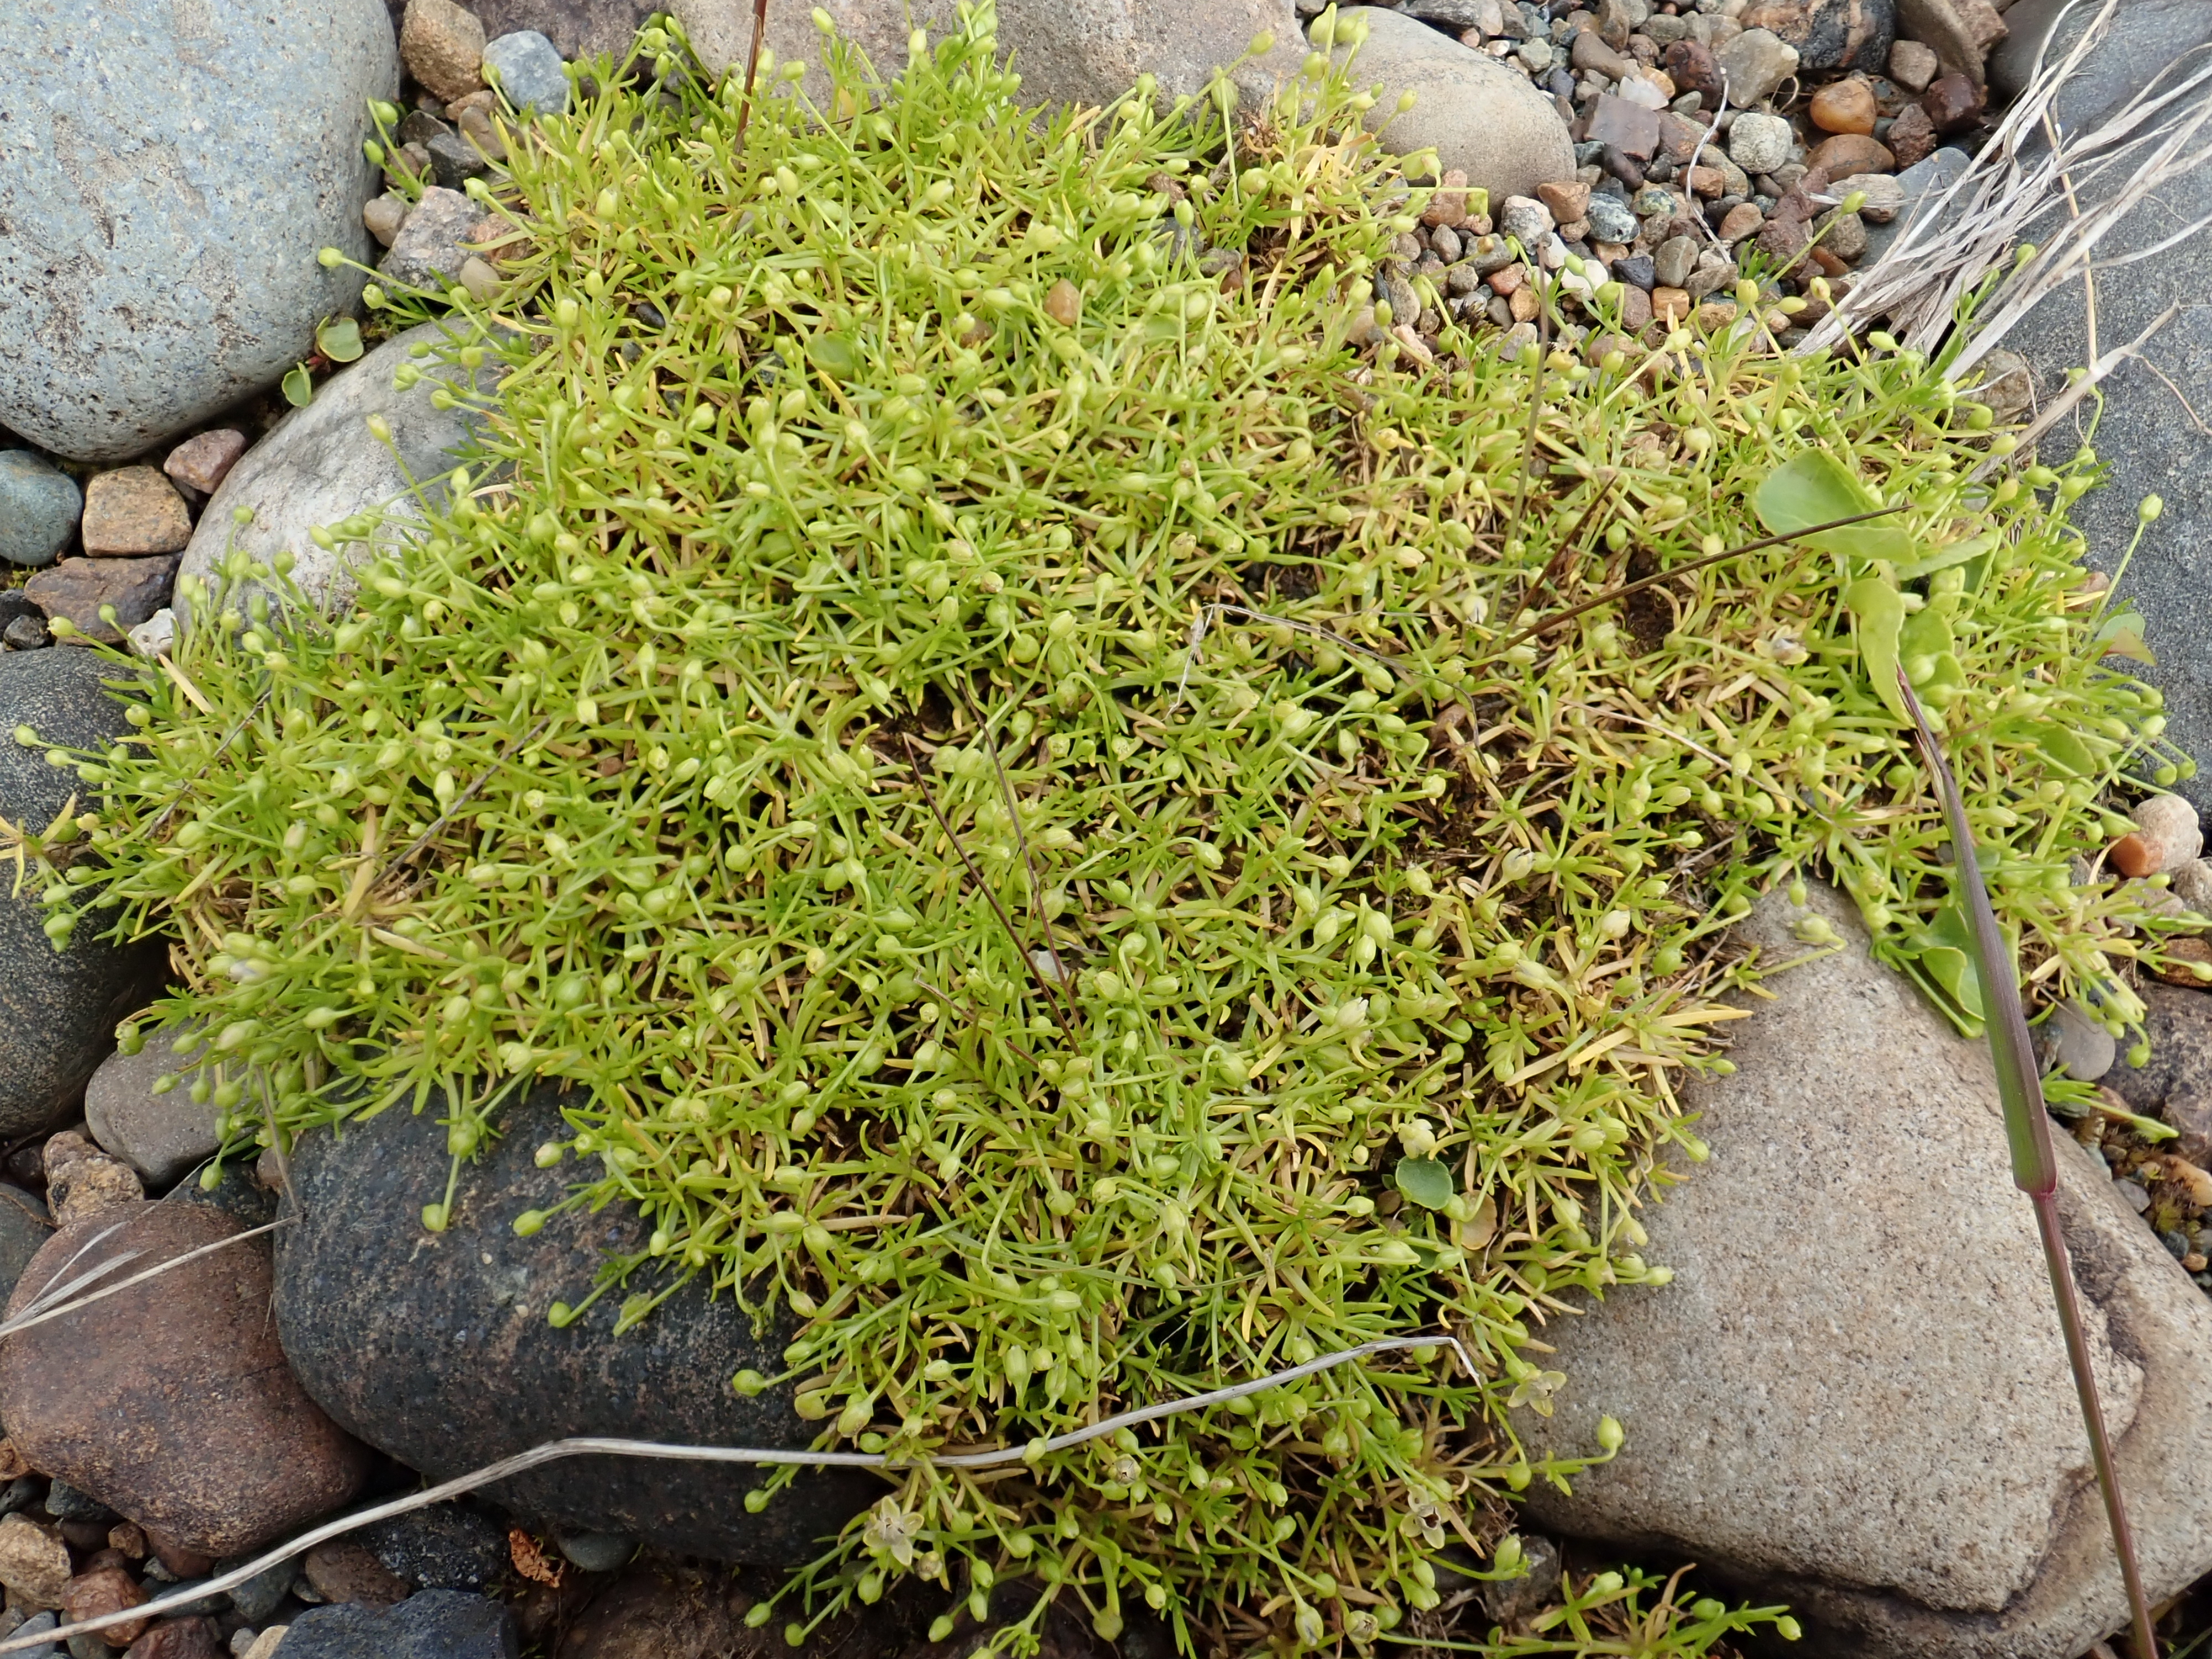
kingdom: Plantae
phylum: Tracheophyta
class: Magnoliopsida
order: Caryophyllales
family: Caryophyllaceae
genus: Sagina
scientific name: Sagina procumbens
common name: Procumbent pearlwort
